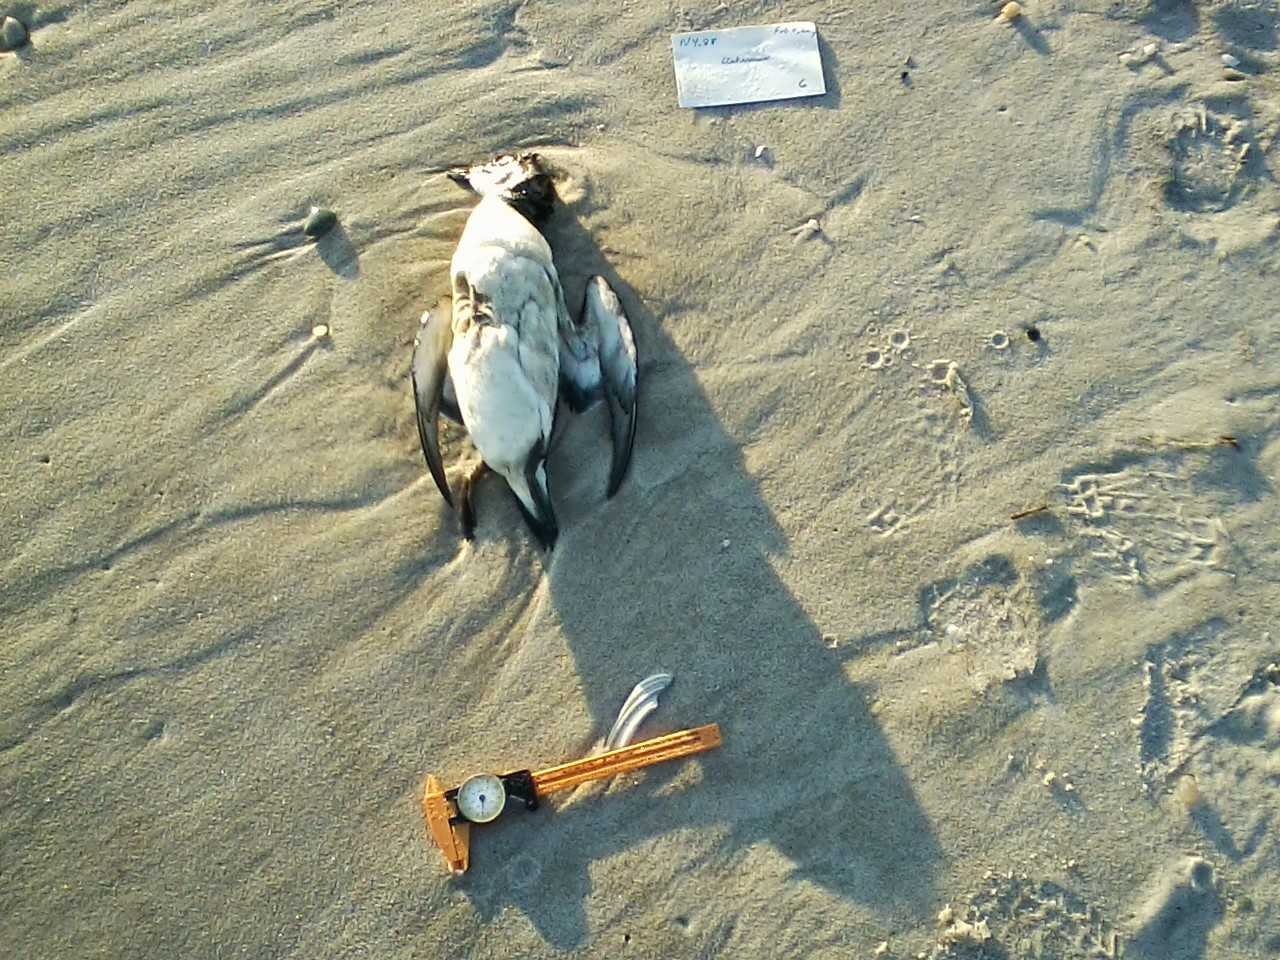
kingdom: Animalia
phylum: Chordata
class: Aves
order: Charadriiformes
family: Alcidae
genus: Uria
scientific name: Uria lomvia
